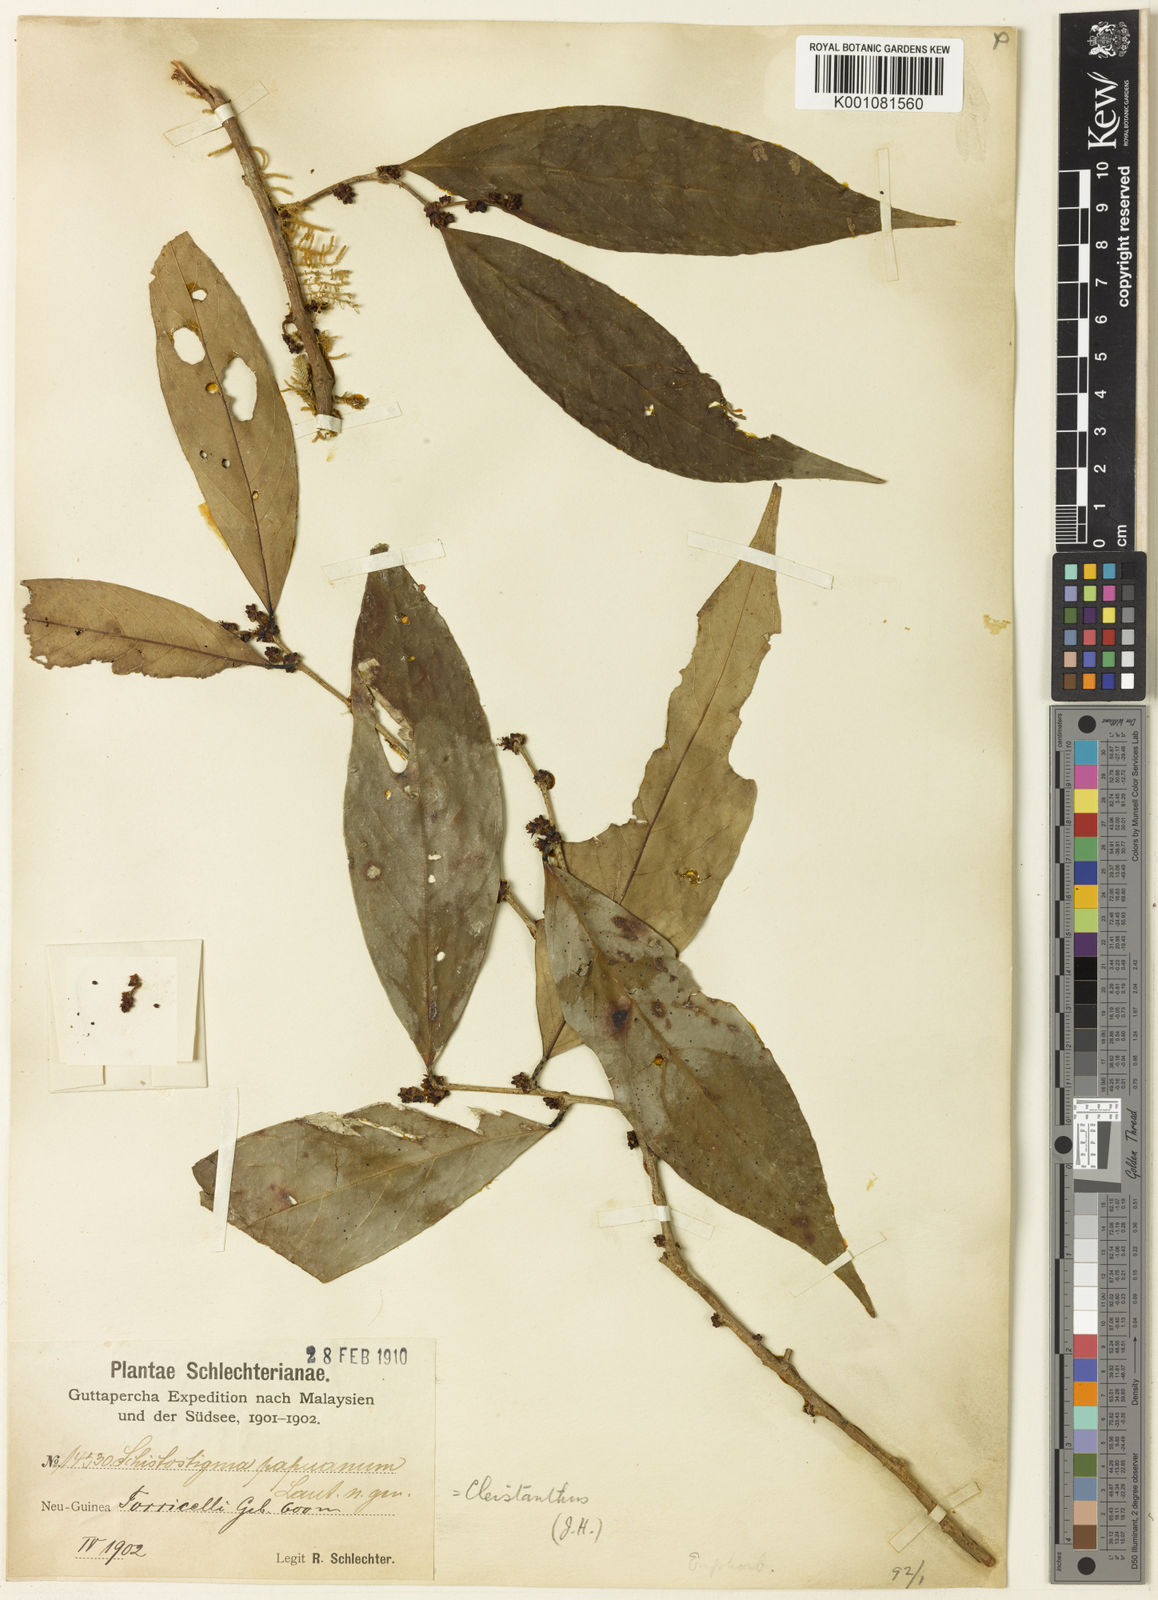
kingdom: Plantae
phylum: Tracheophyta
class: Magnoliopsida
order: Malpighiales
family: Phyllanthaceae
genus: Cleistanthus
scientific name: Cleistanthus papuanus
